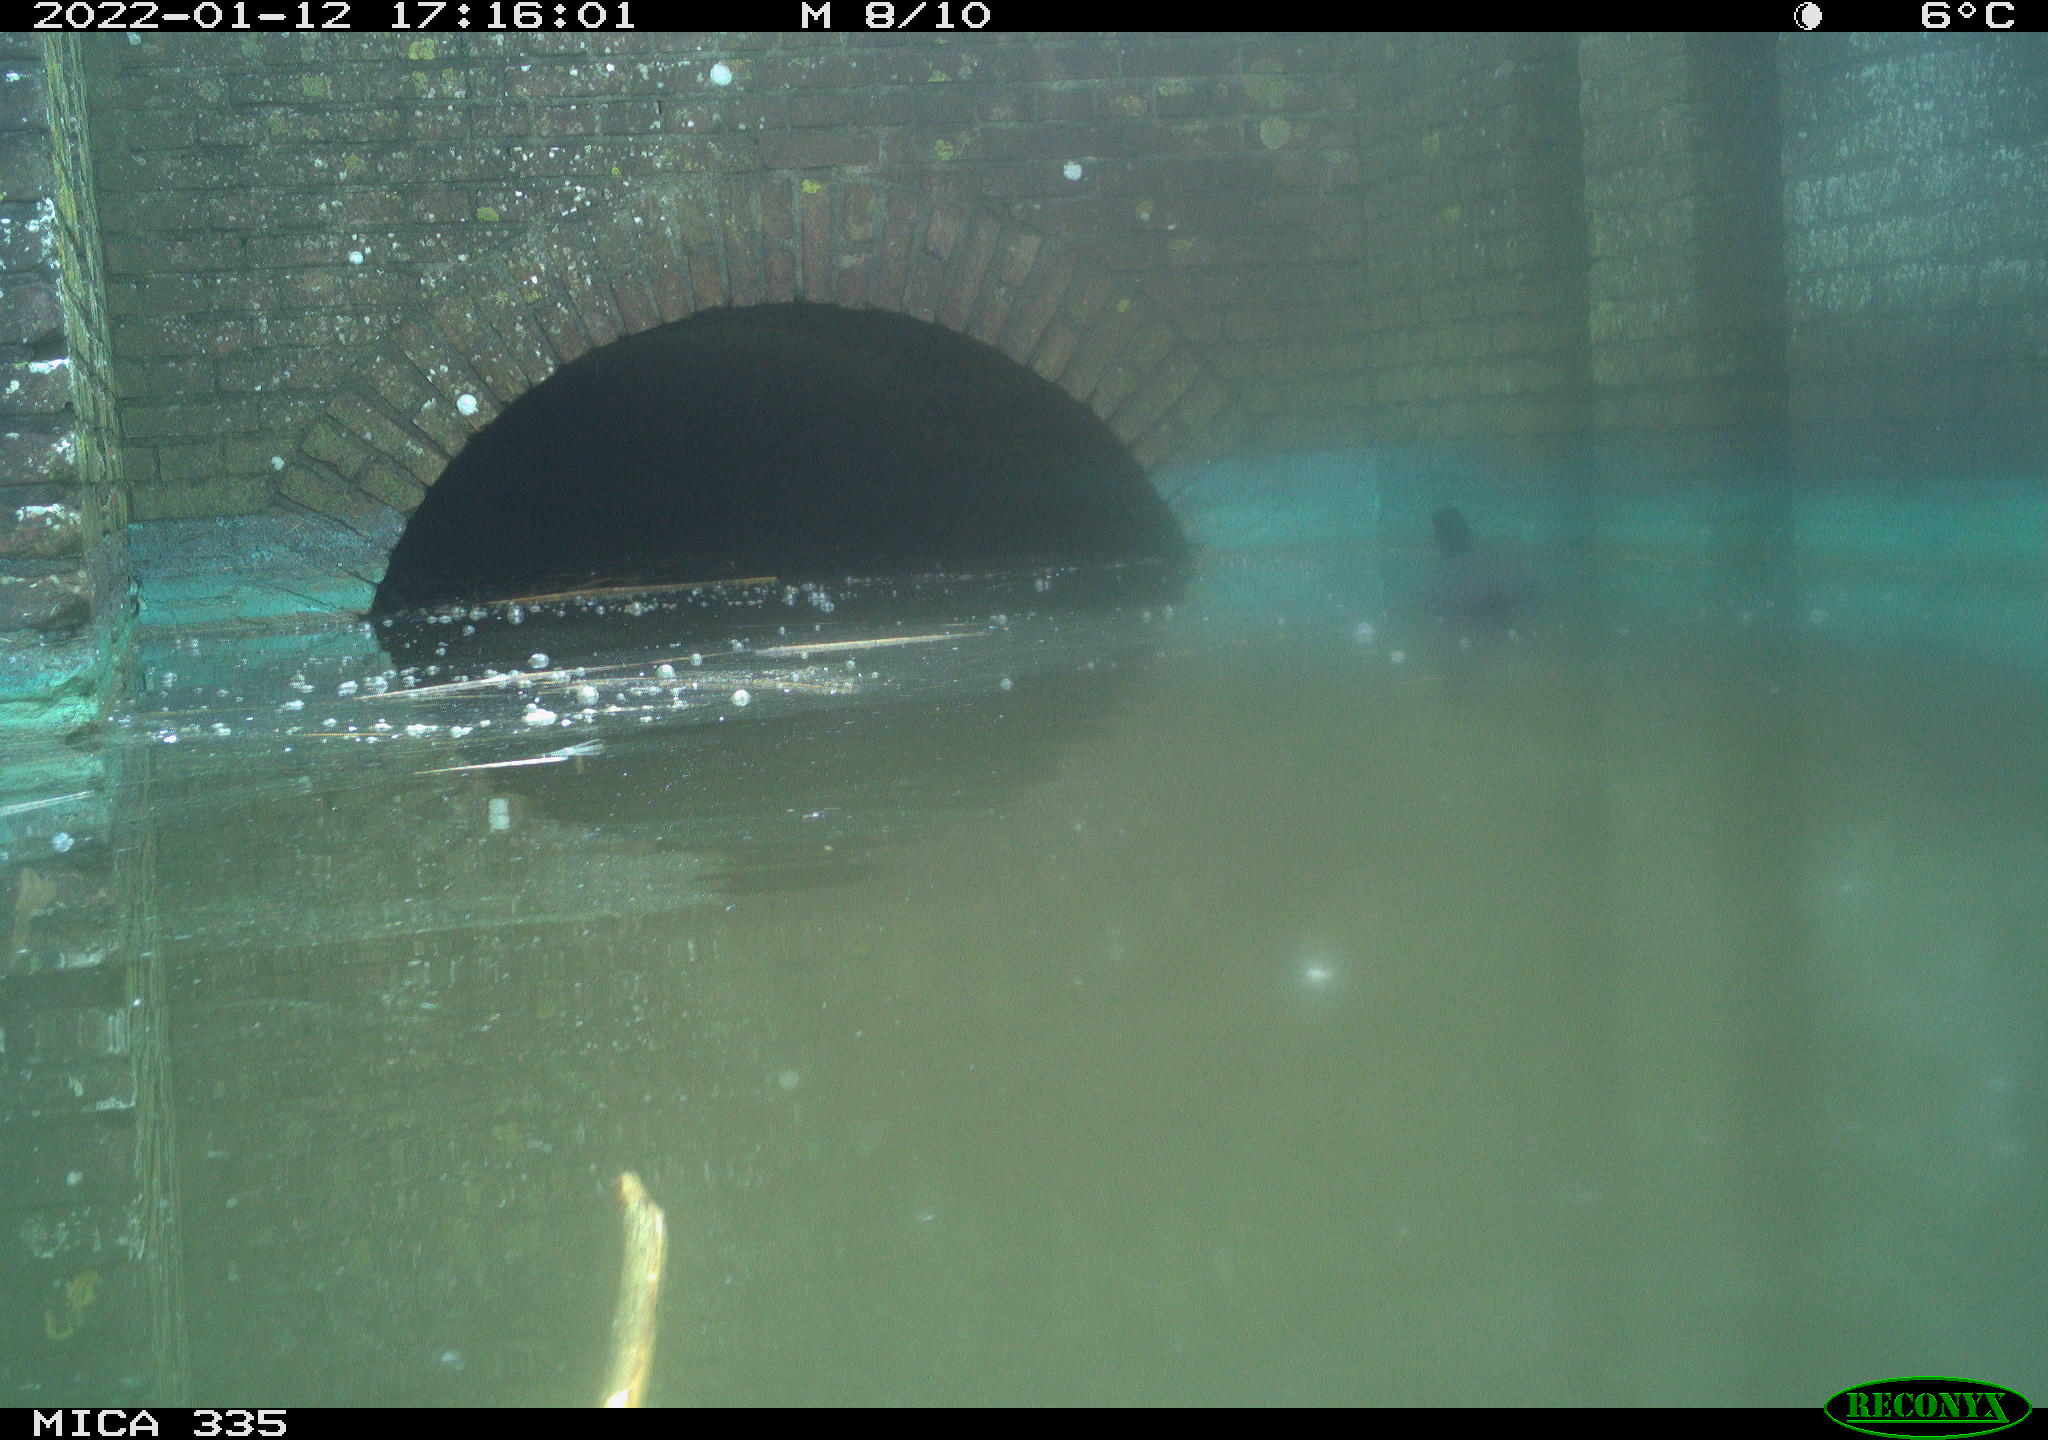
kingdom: Animalia
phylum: Chordata
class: Aves
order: Gruiformes
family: Rallidae
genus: Fulica
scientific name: Fulica atra
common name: Eurasian coot
